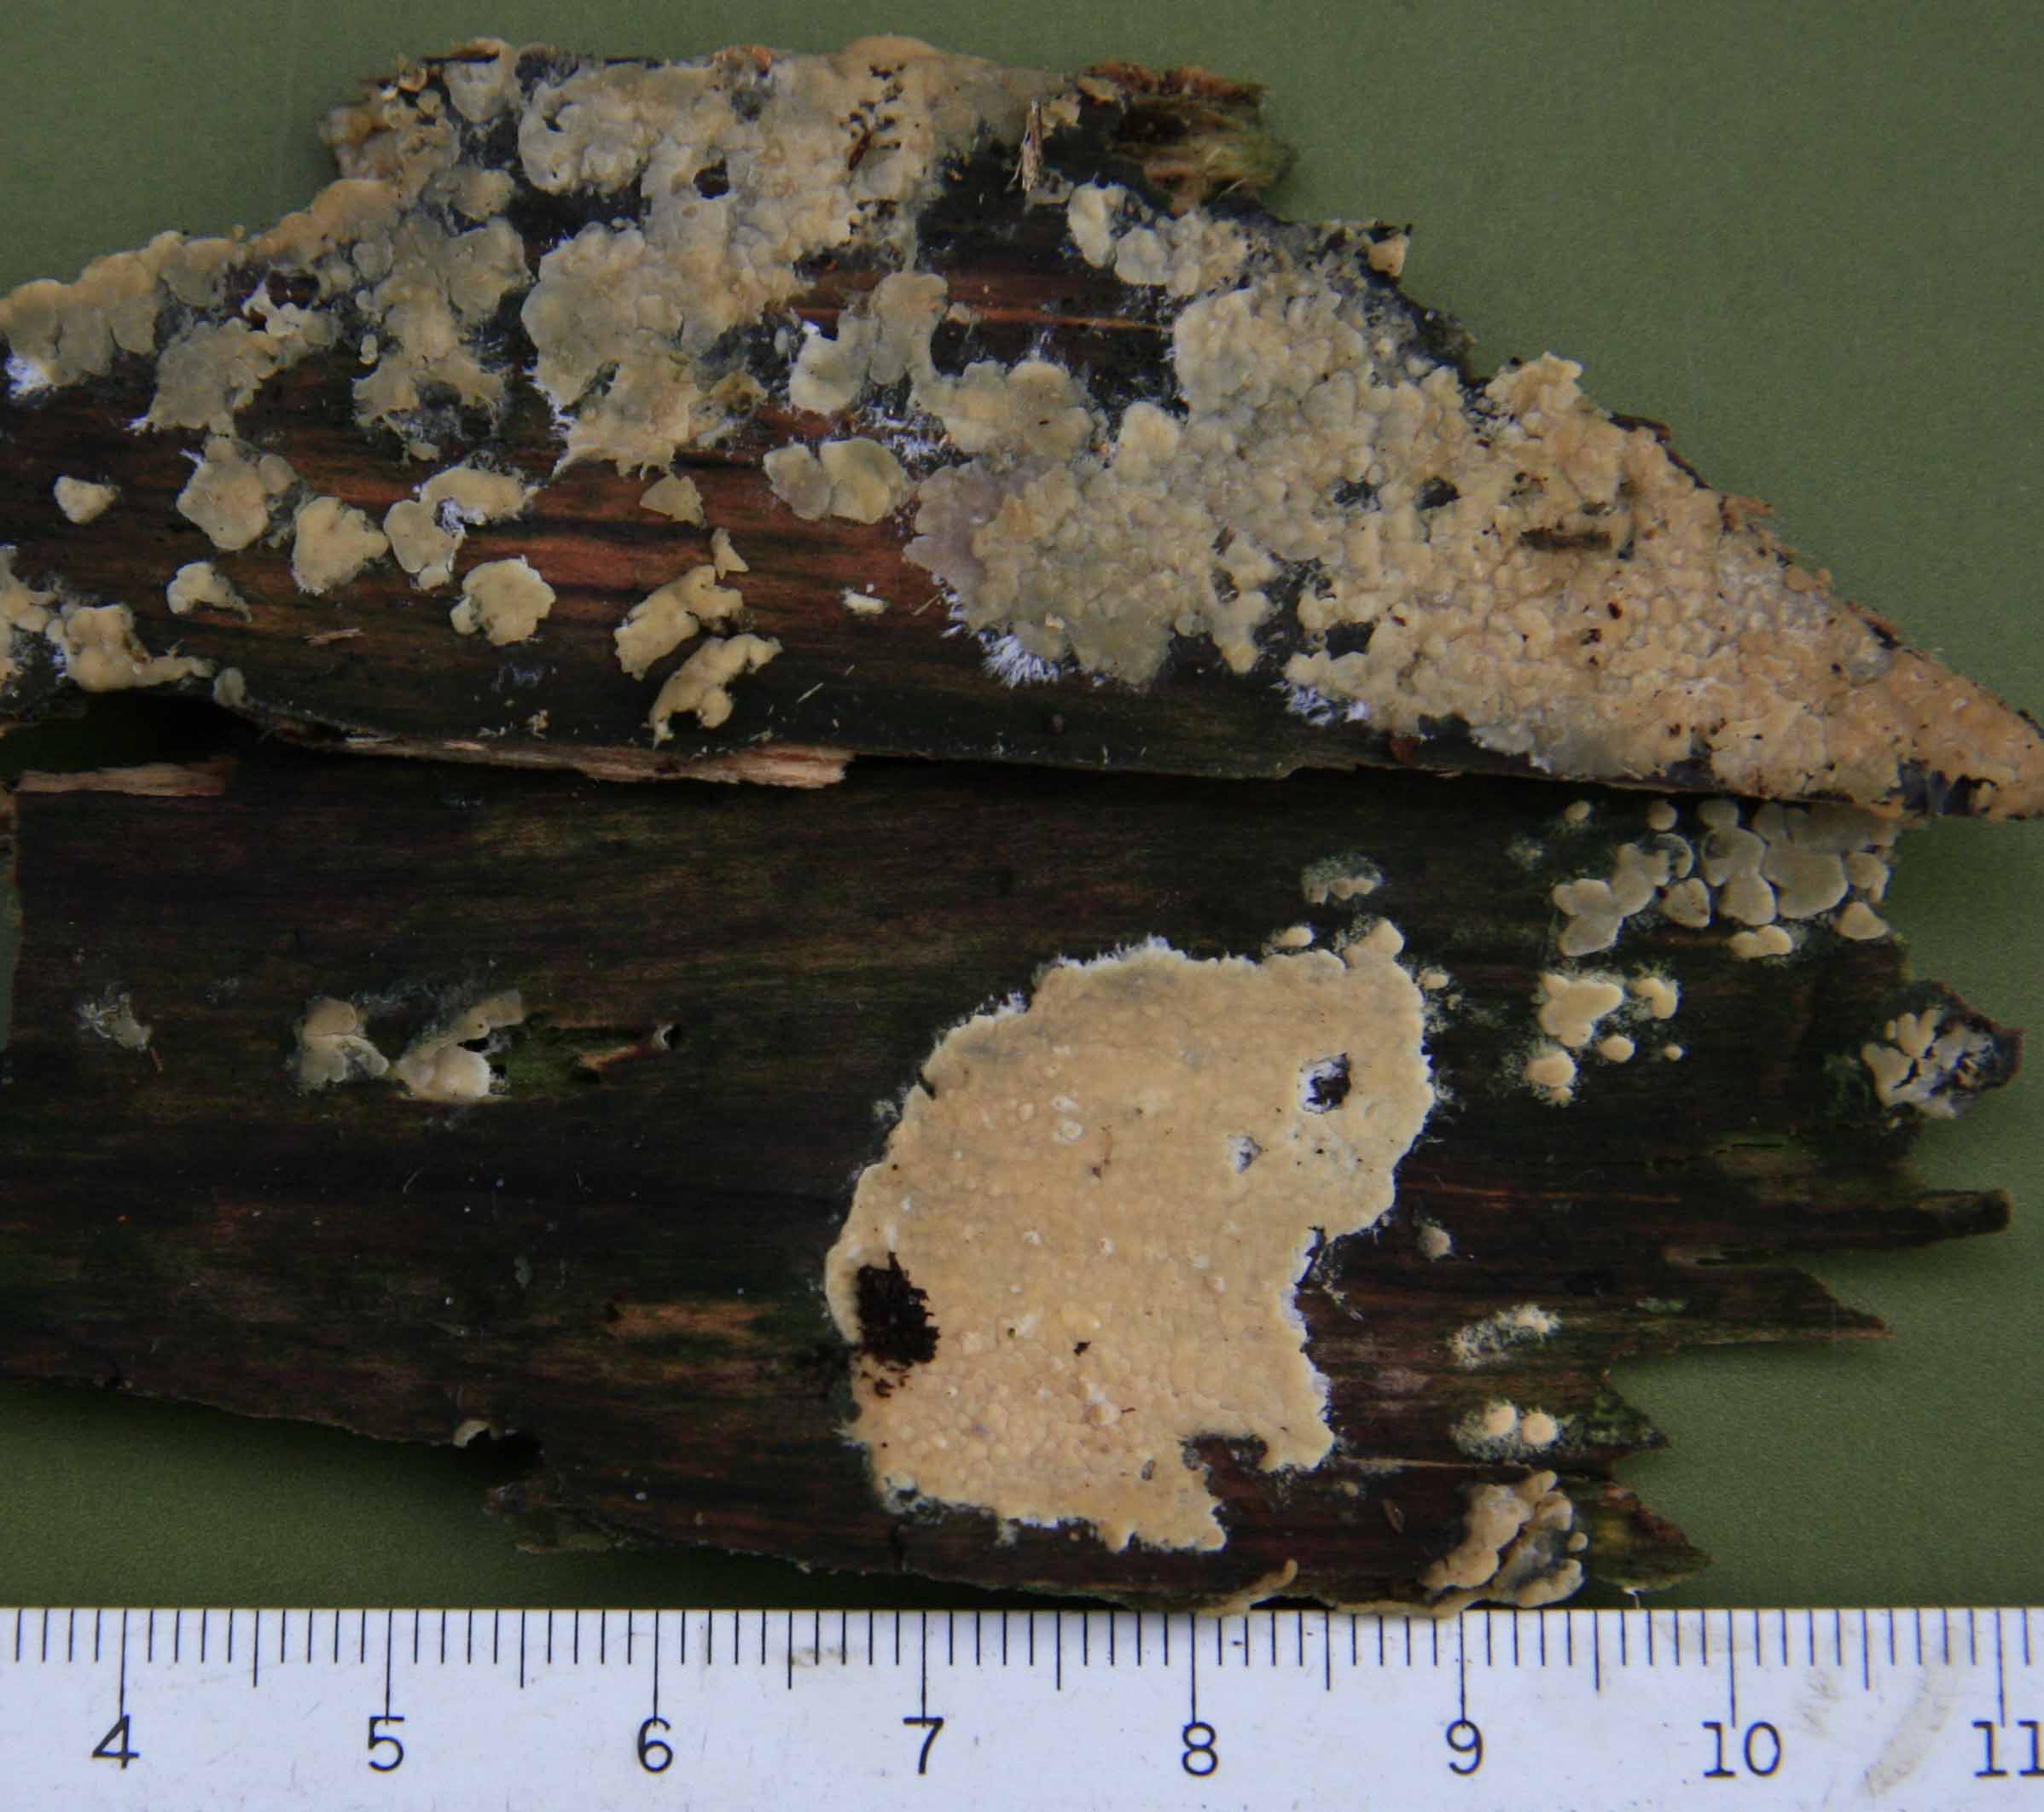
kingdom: Fungi
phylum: Basidiomycota
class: Agaricomycetes
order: Russulales
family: Peniophoraceae
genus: Gloiothele
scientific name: Gloiothele citrina
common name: citronskorpe
